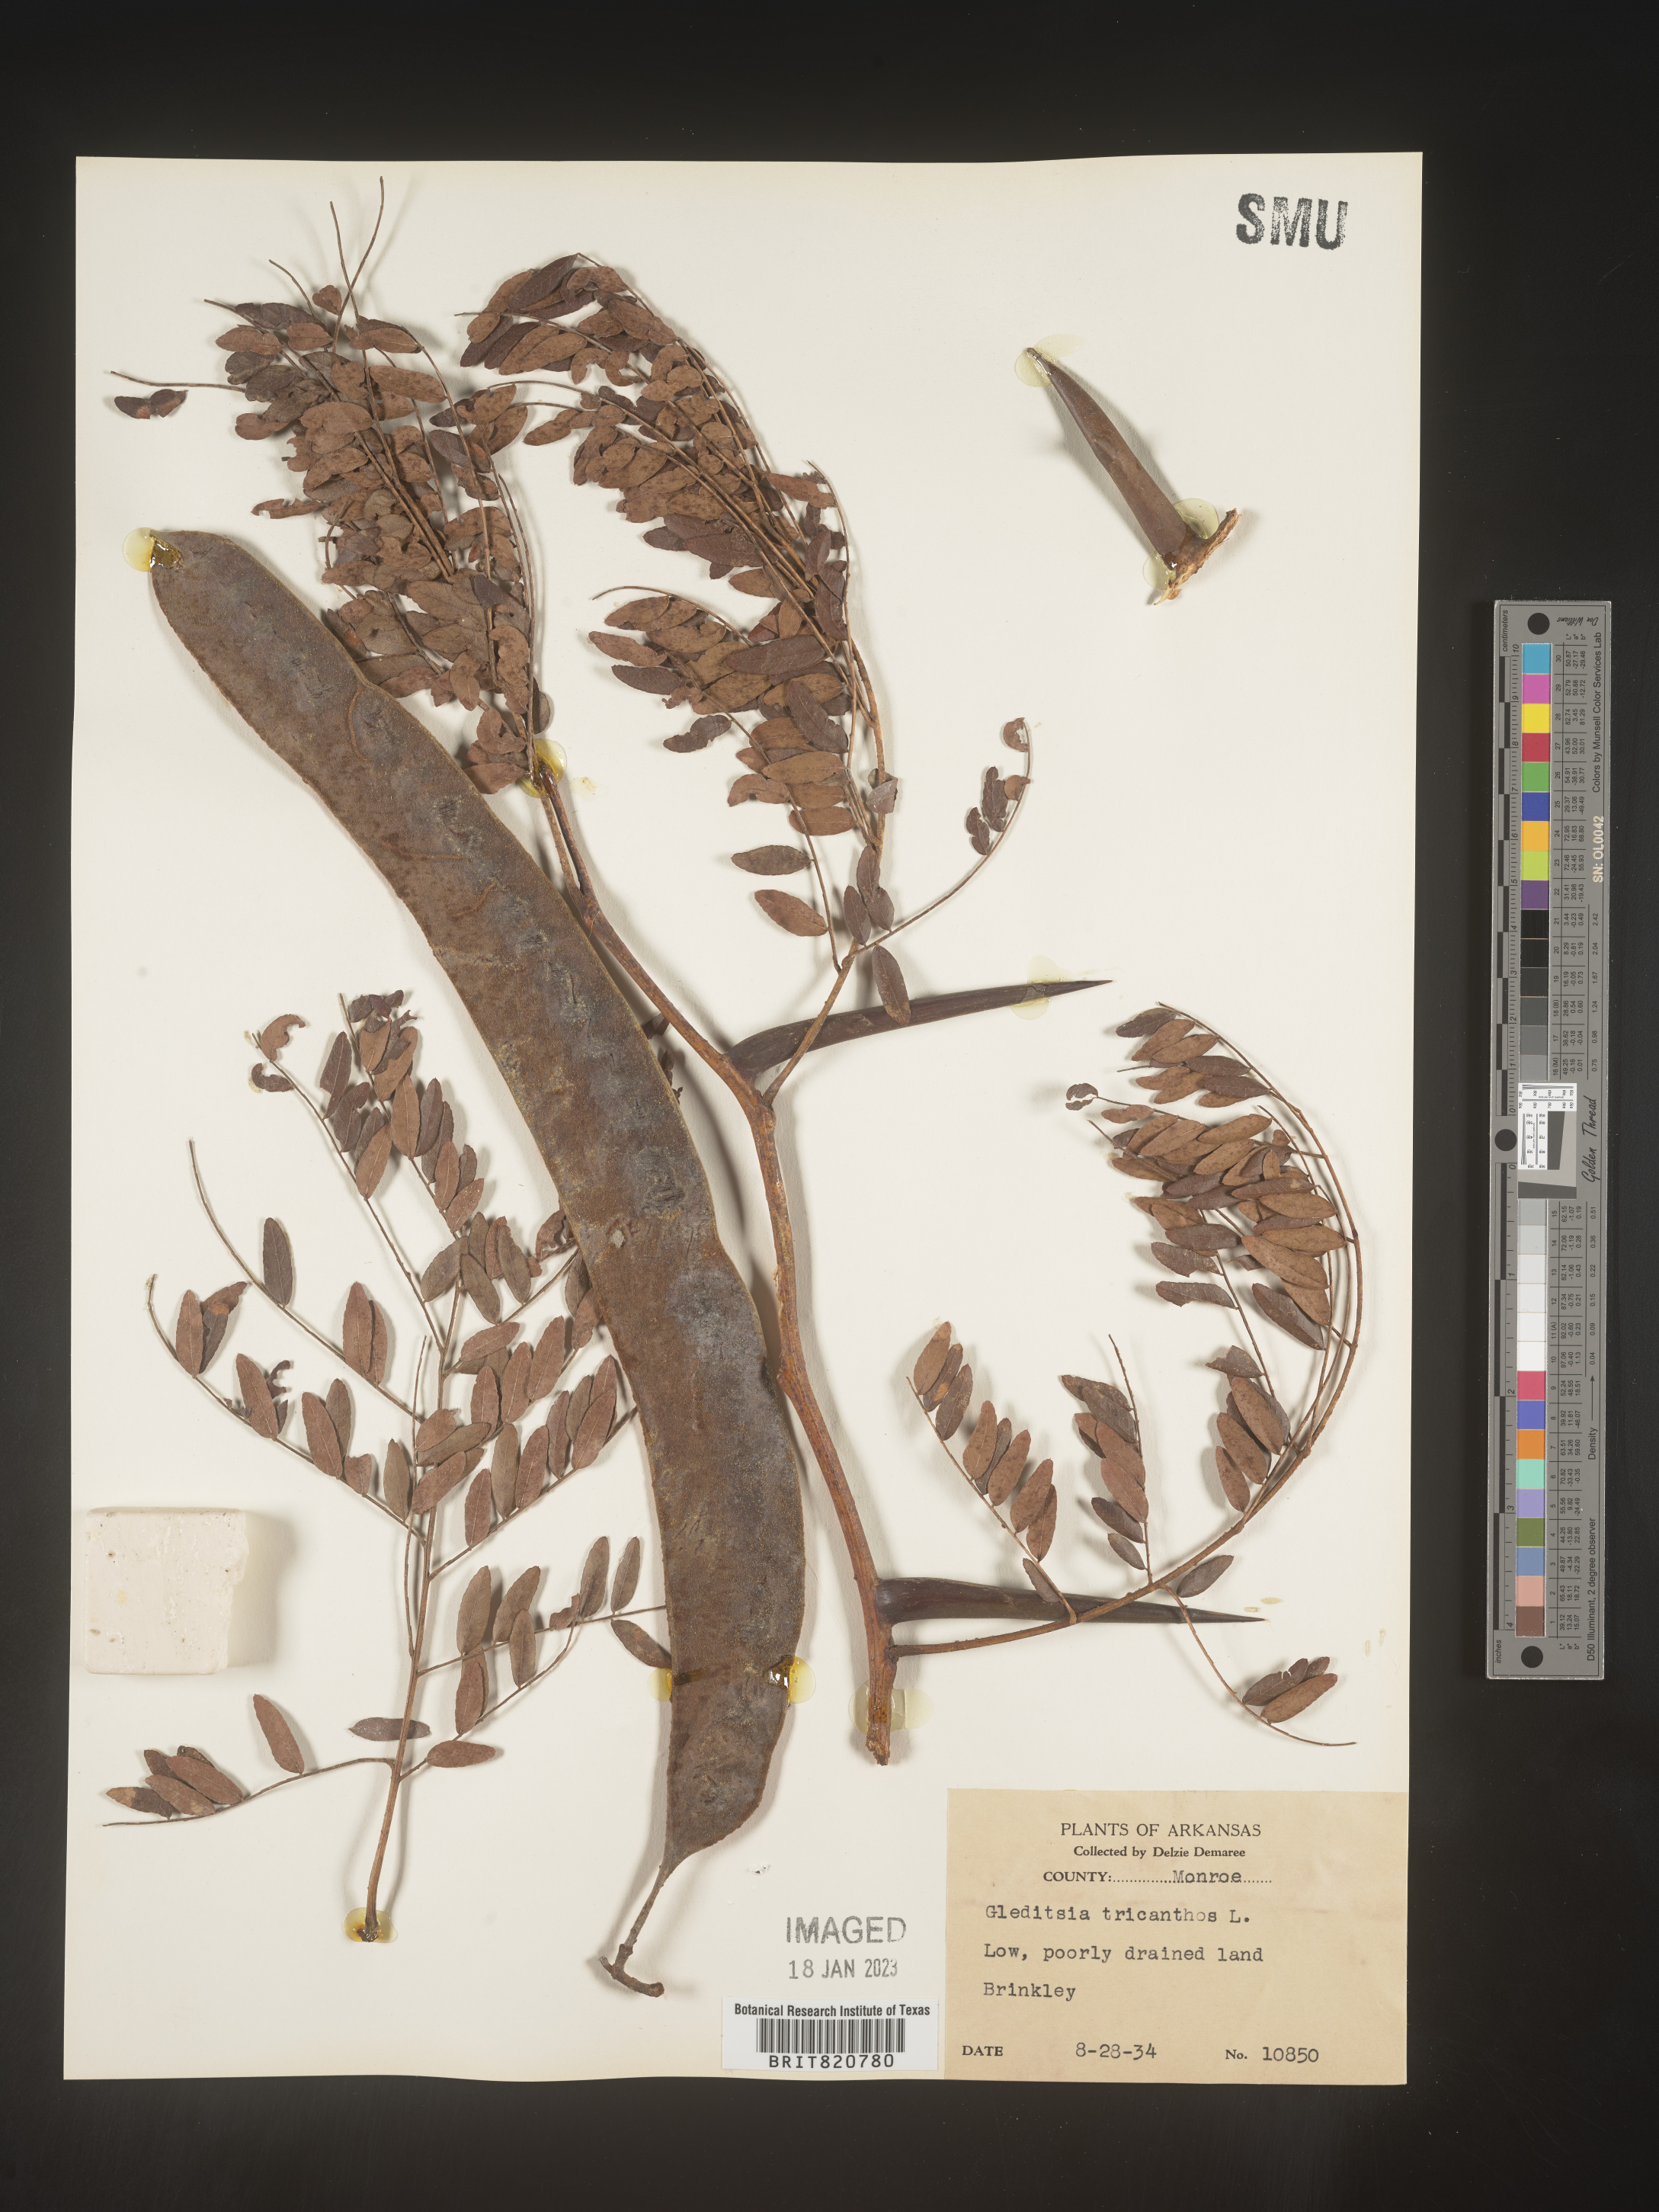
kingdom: Plantae
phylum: Tracheophyta
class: Magnoliopsida
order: Fabales
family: Fabaceae
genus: Gleditsia
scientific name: Gleditsia triacanthos
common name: Common honeylocust
